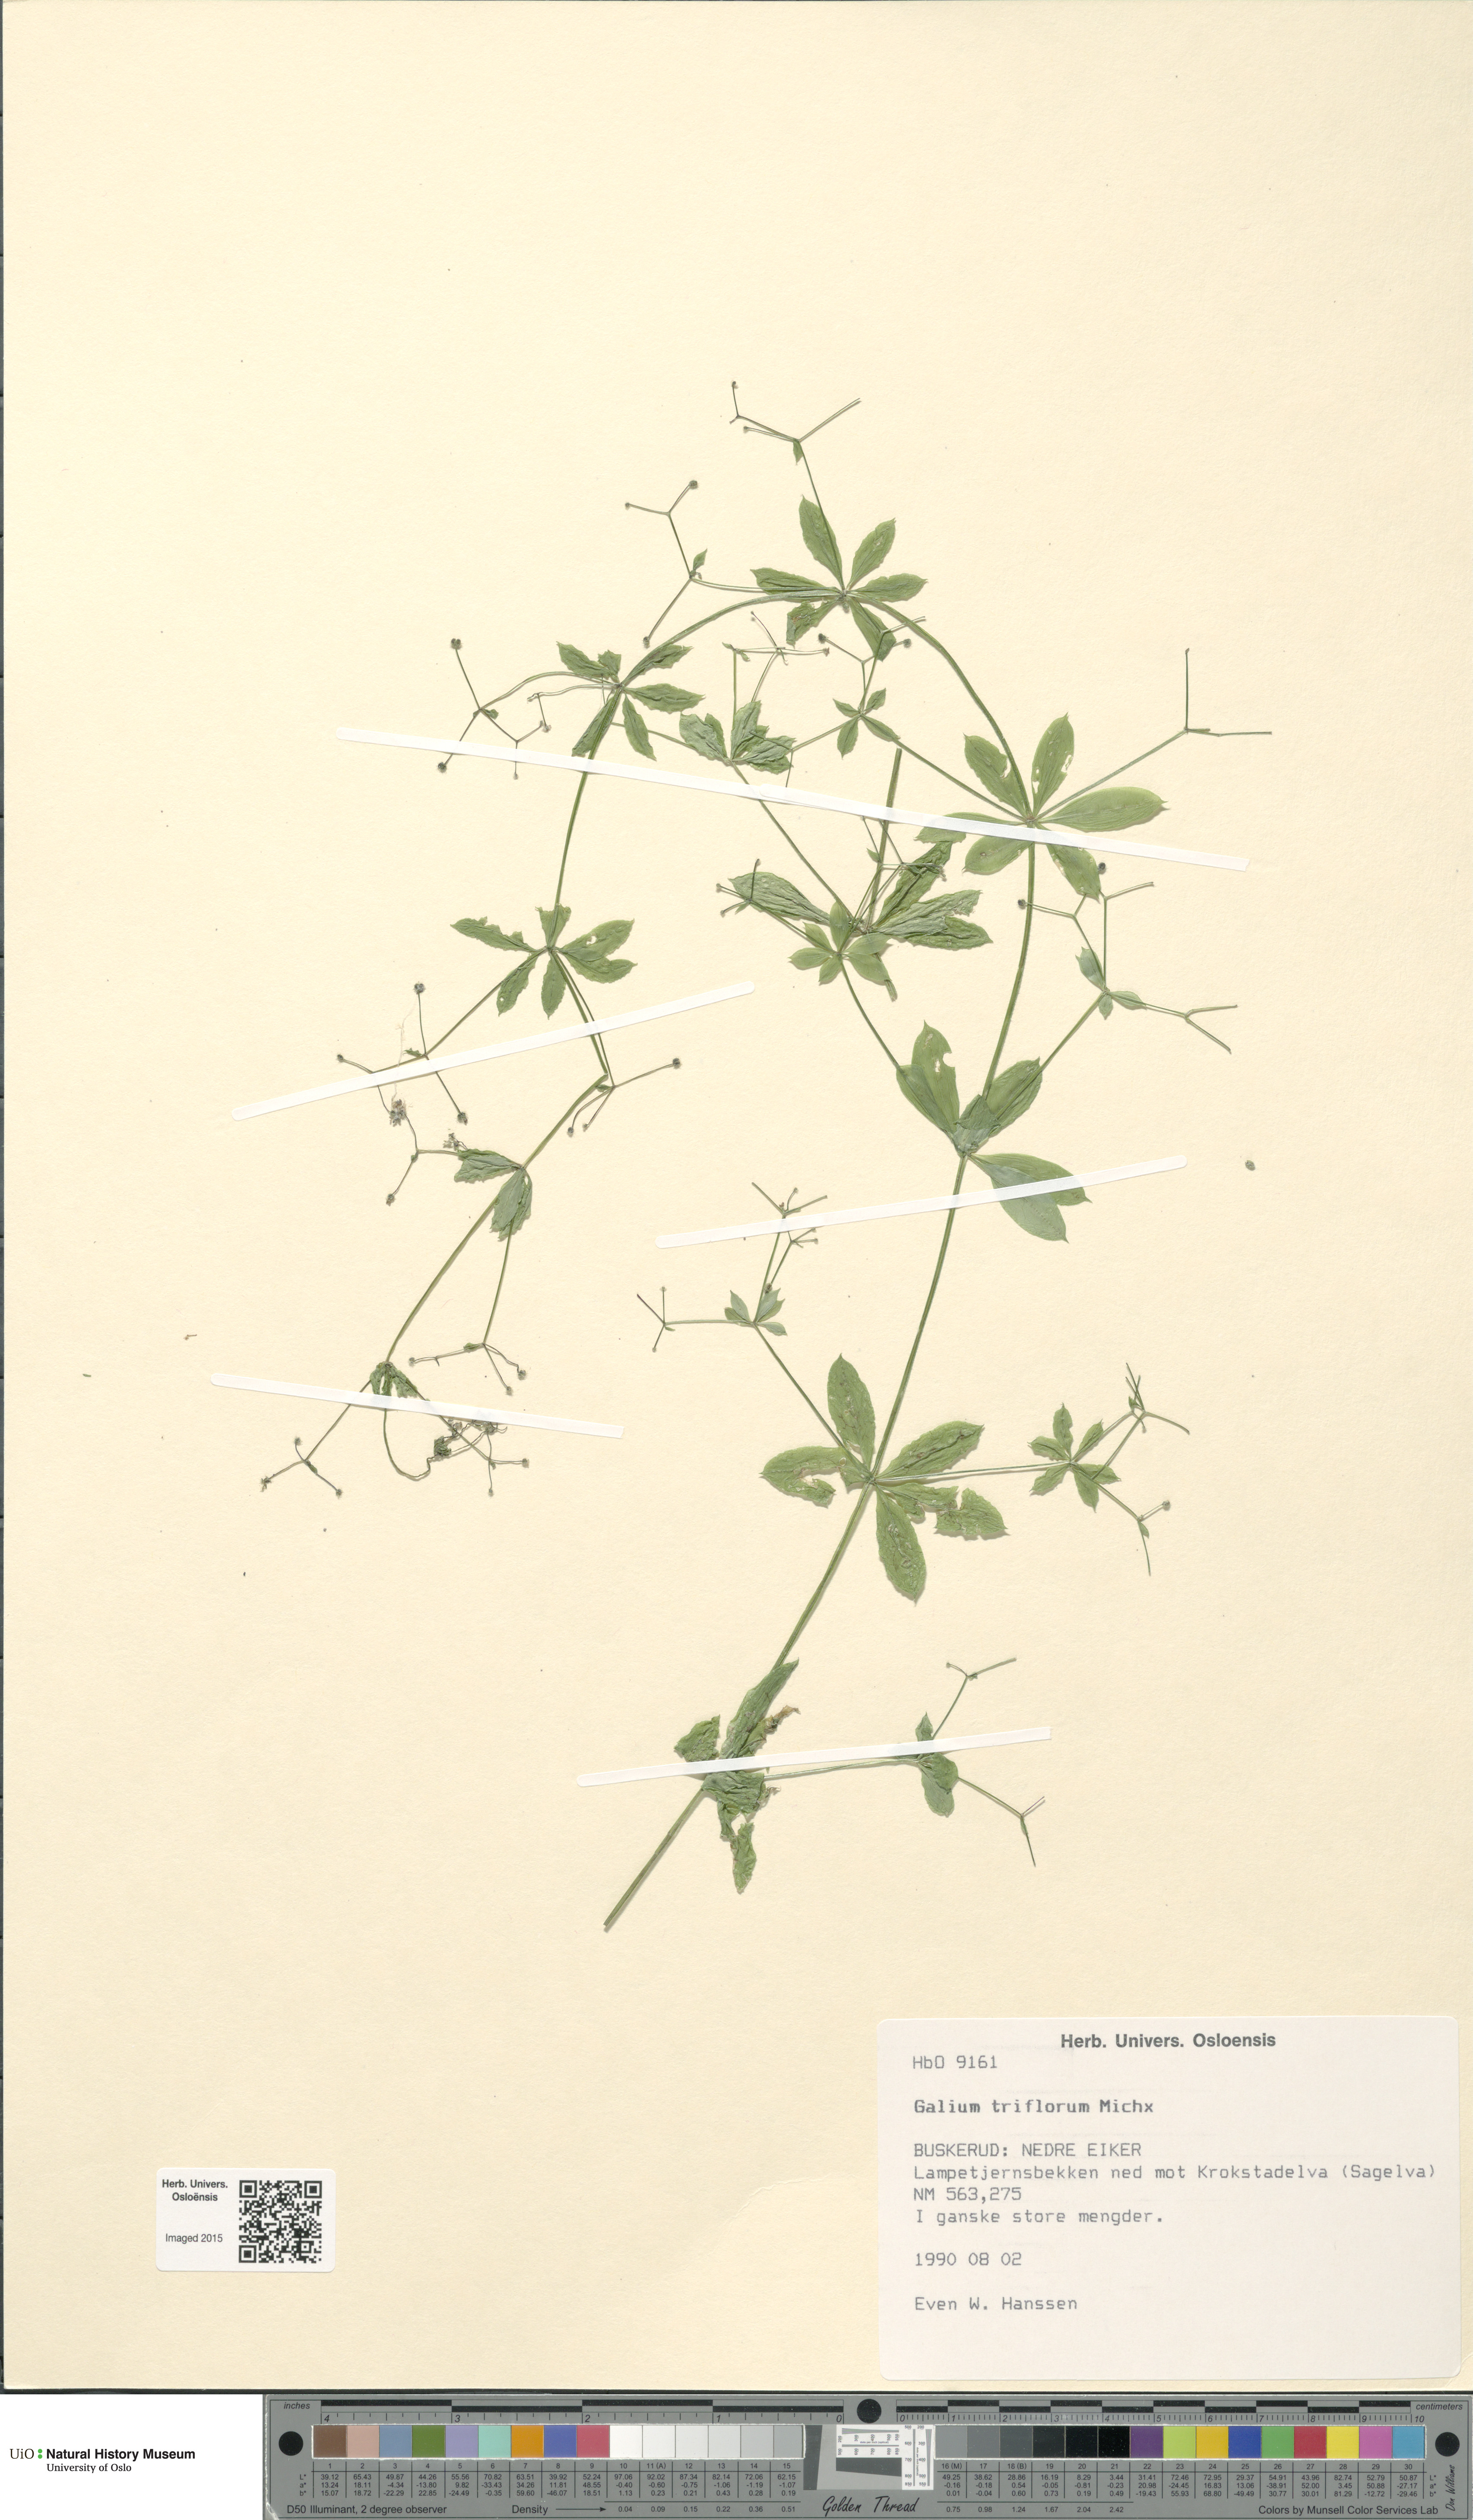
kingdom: Plantae
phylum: Tracheophyta
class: Magnoliopsida
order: Gentianales
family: Rubiaceae
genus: Galium
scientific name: Galium triflorum
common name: Fragrant bedstraw
